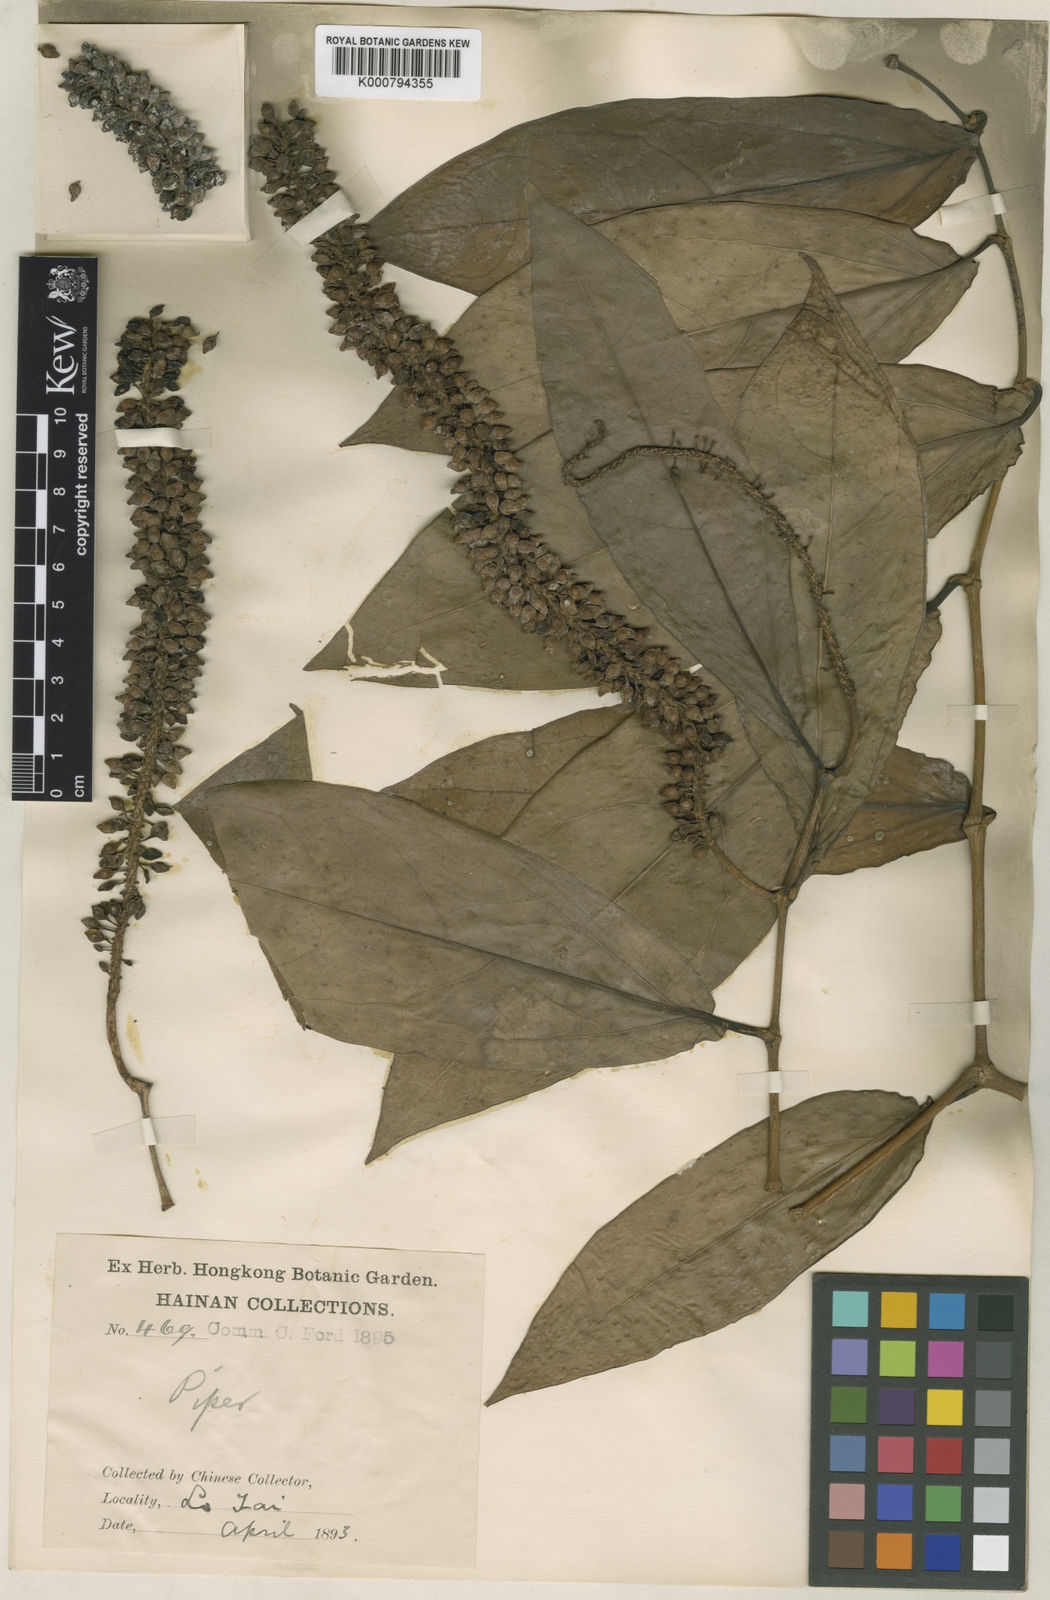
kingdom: Plantae
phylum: Tracheophyta
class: Magnoliopsida
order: Piperales
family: Piperaceae
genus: Piper
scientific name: Piper laetispicum
